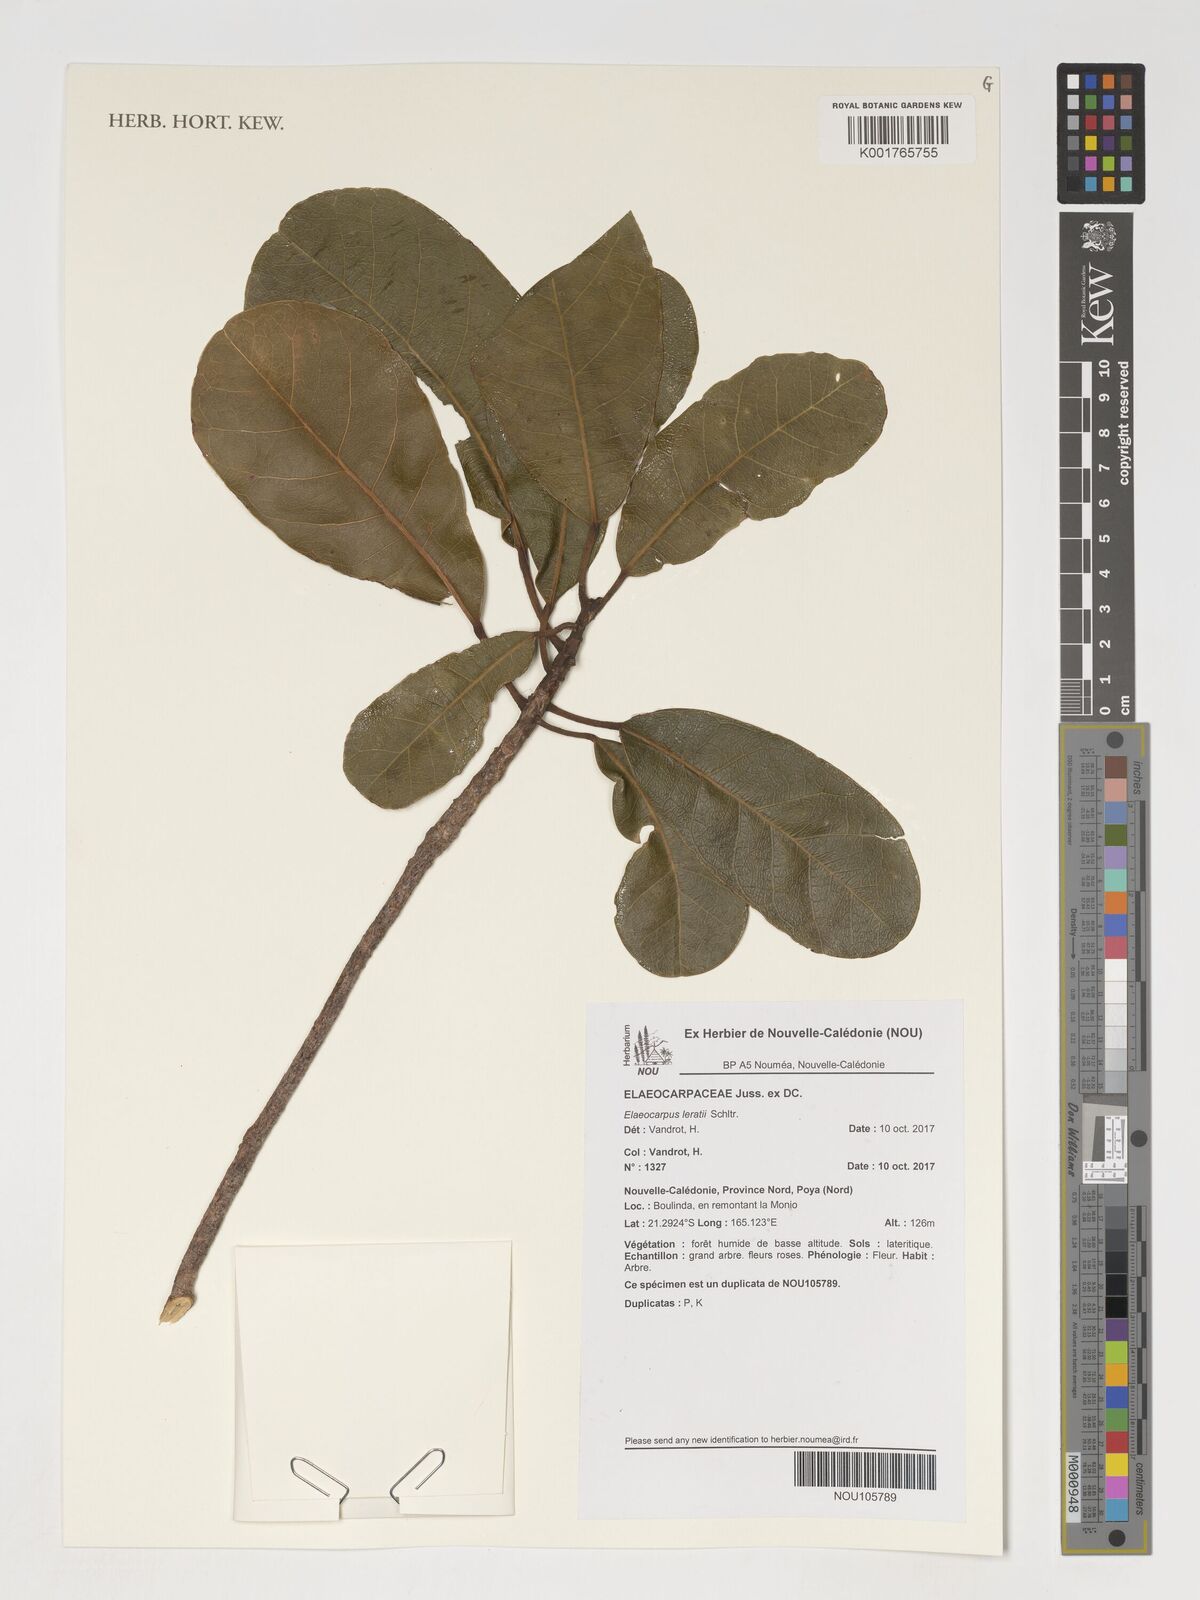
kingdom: Plantae
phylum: Tracheophyta
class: Magnoliopsida
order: Oxalidales
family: Elaeocarpaceae
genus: Elaeocarpus
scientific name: Elaeocarpus leratii
